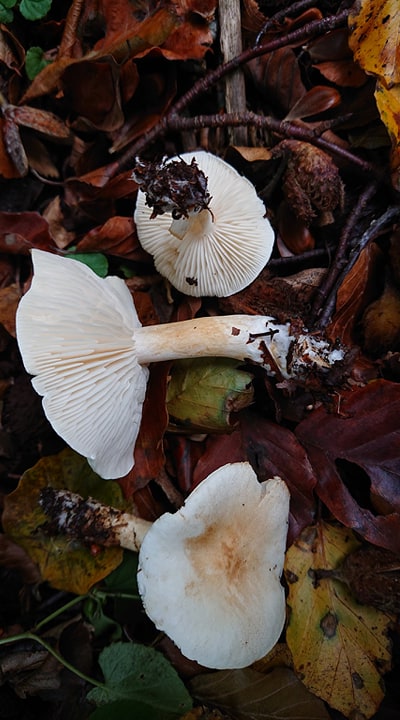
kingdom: Fungi
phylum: Basidiomycota
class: Agaricomycetes
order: Agaricales
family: Tricholomataceae
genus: Tricholoma
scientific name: Tricholoma lascivum
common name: stinkende ridderhat
